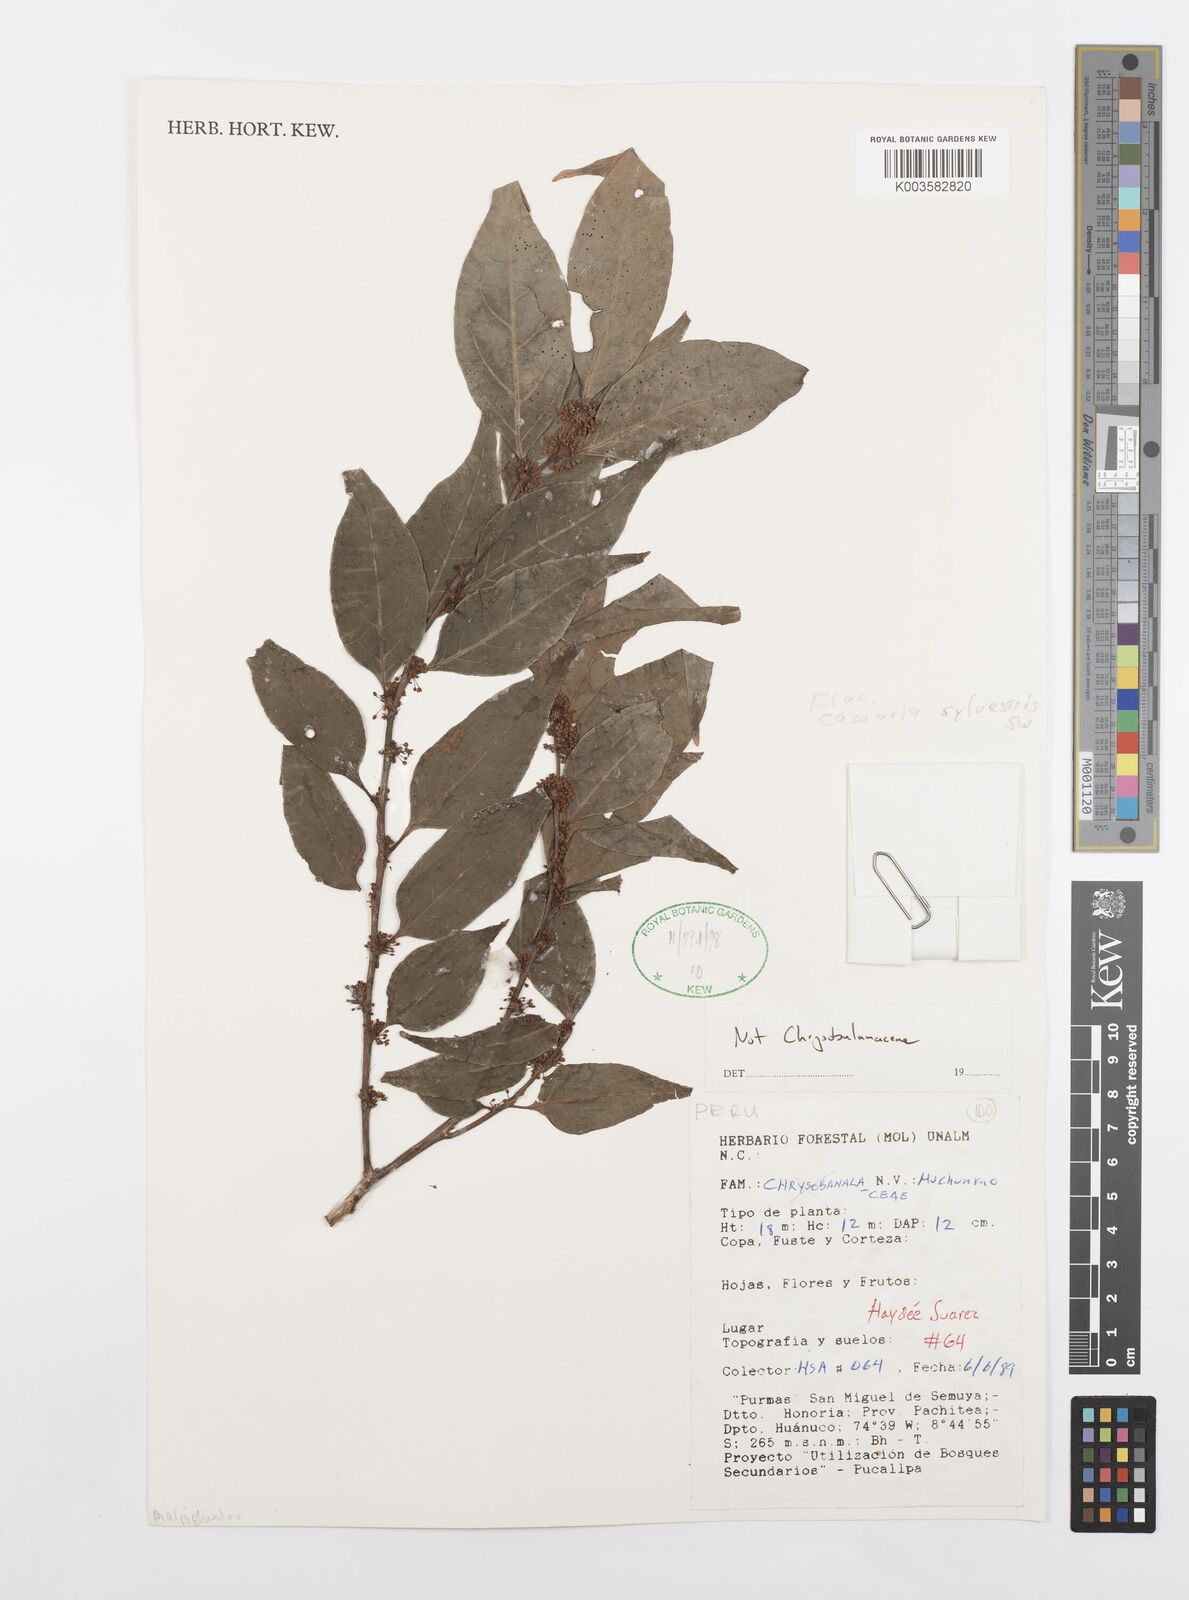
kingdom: Plantae
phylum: Tracheophyta
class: Magnoliopsida
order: Malpighiales
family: Salicaceae
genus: Casearia
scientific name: Casearia sylvestris
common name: Wild sage
